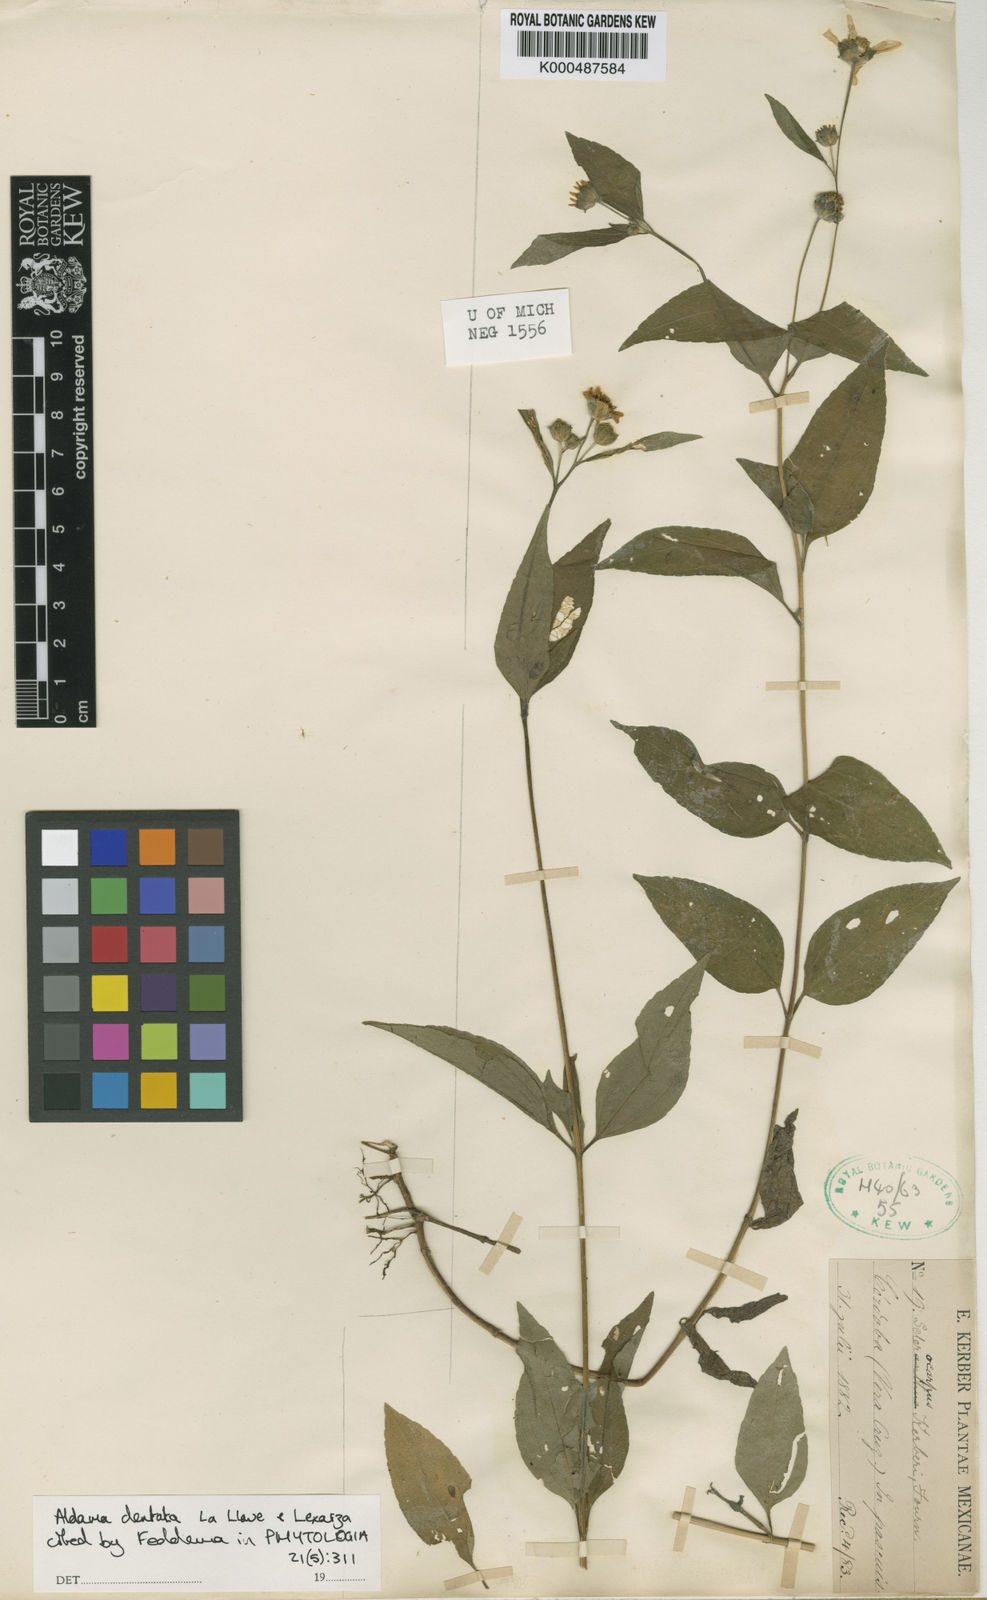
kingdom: Plantae
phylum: Tracheophyta
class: Magnoliopsida
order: Asterales
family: Asteraceae
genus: Aldama
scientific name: Aldama dentata
